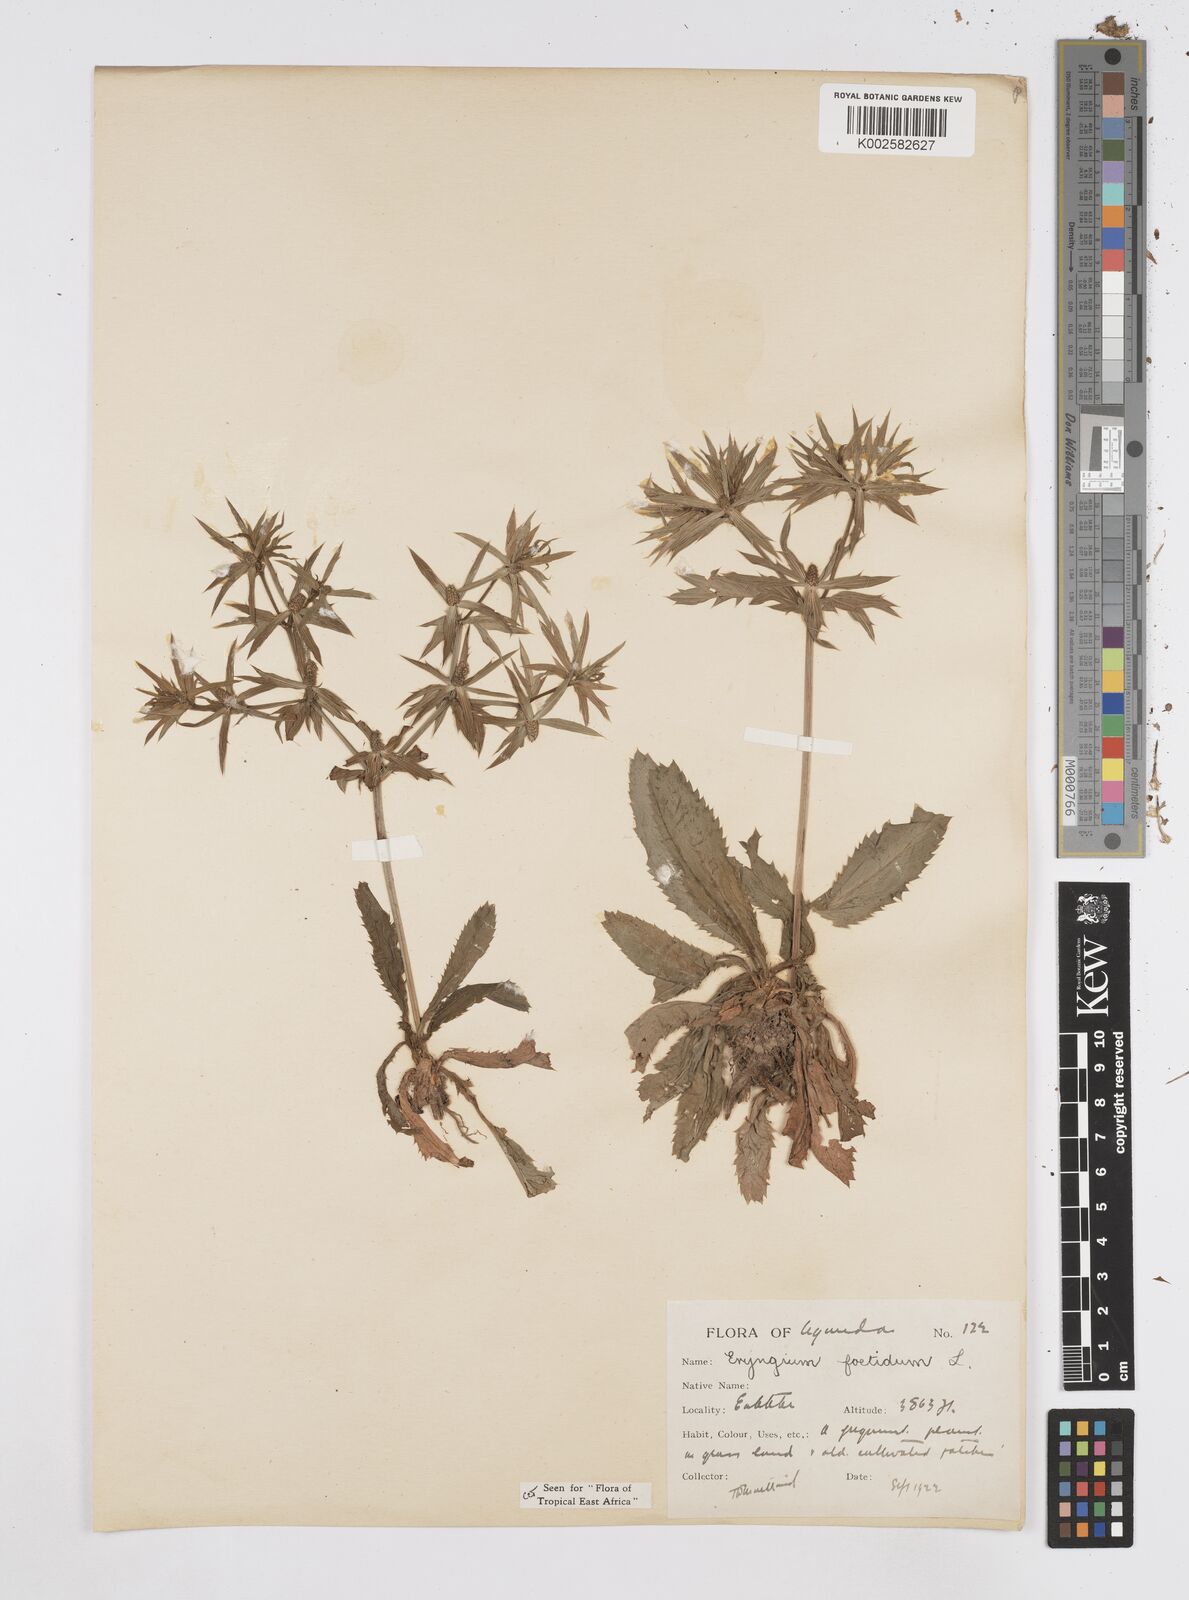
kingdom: Plantae
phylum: Tracheophyta
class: Magnoliopsida
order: Apiales
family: Apiaceae
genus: Eryngium
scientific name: Eryngium foetidum
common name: Fitweed
